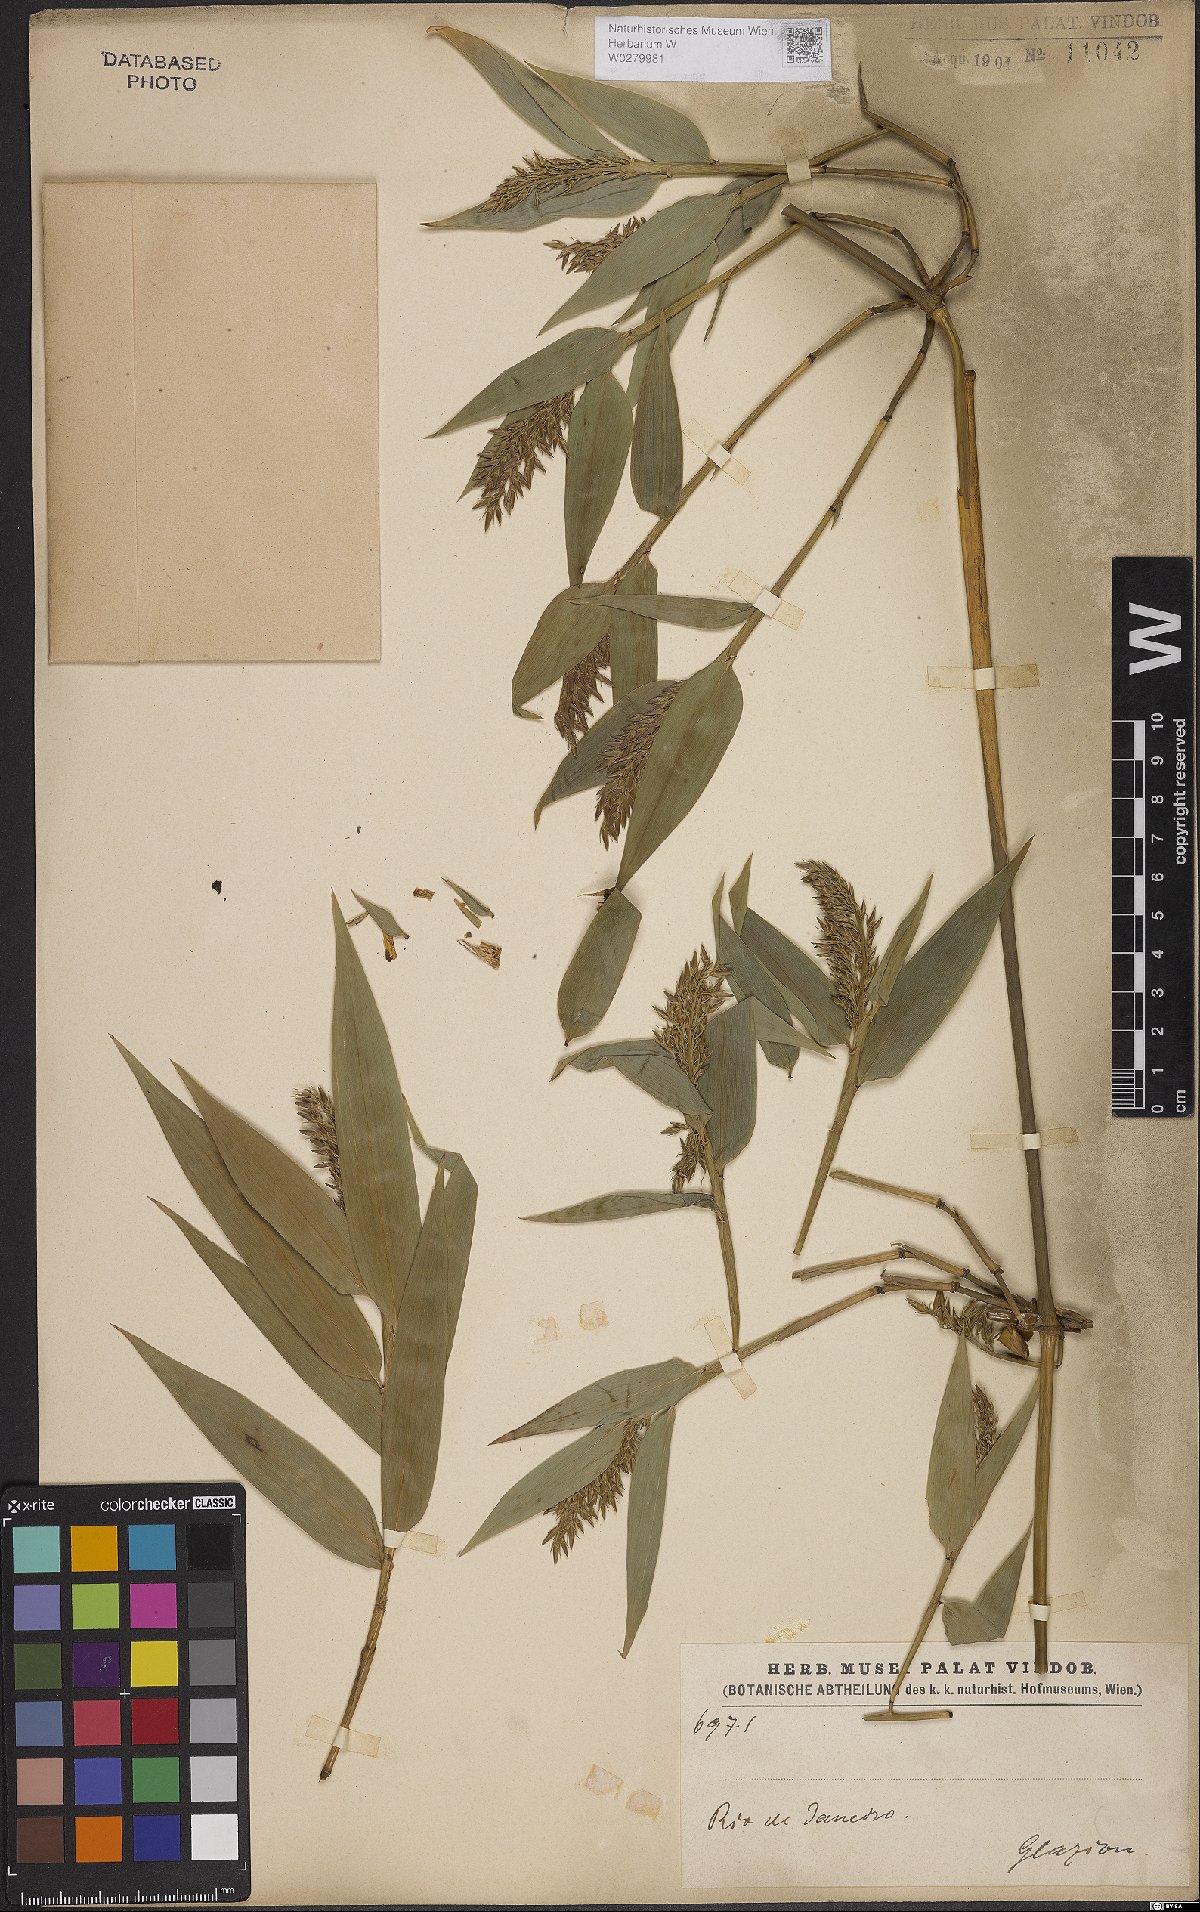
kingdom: Plantae
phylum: Tracheophyta
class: Liliopsida
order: Poales
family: Poaceae
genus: Bambusa
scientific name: Bambusa
